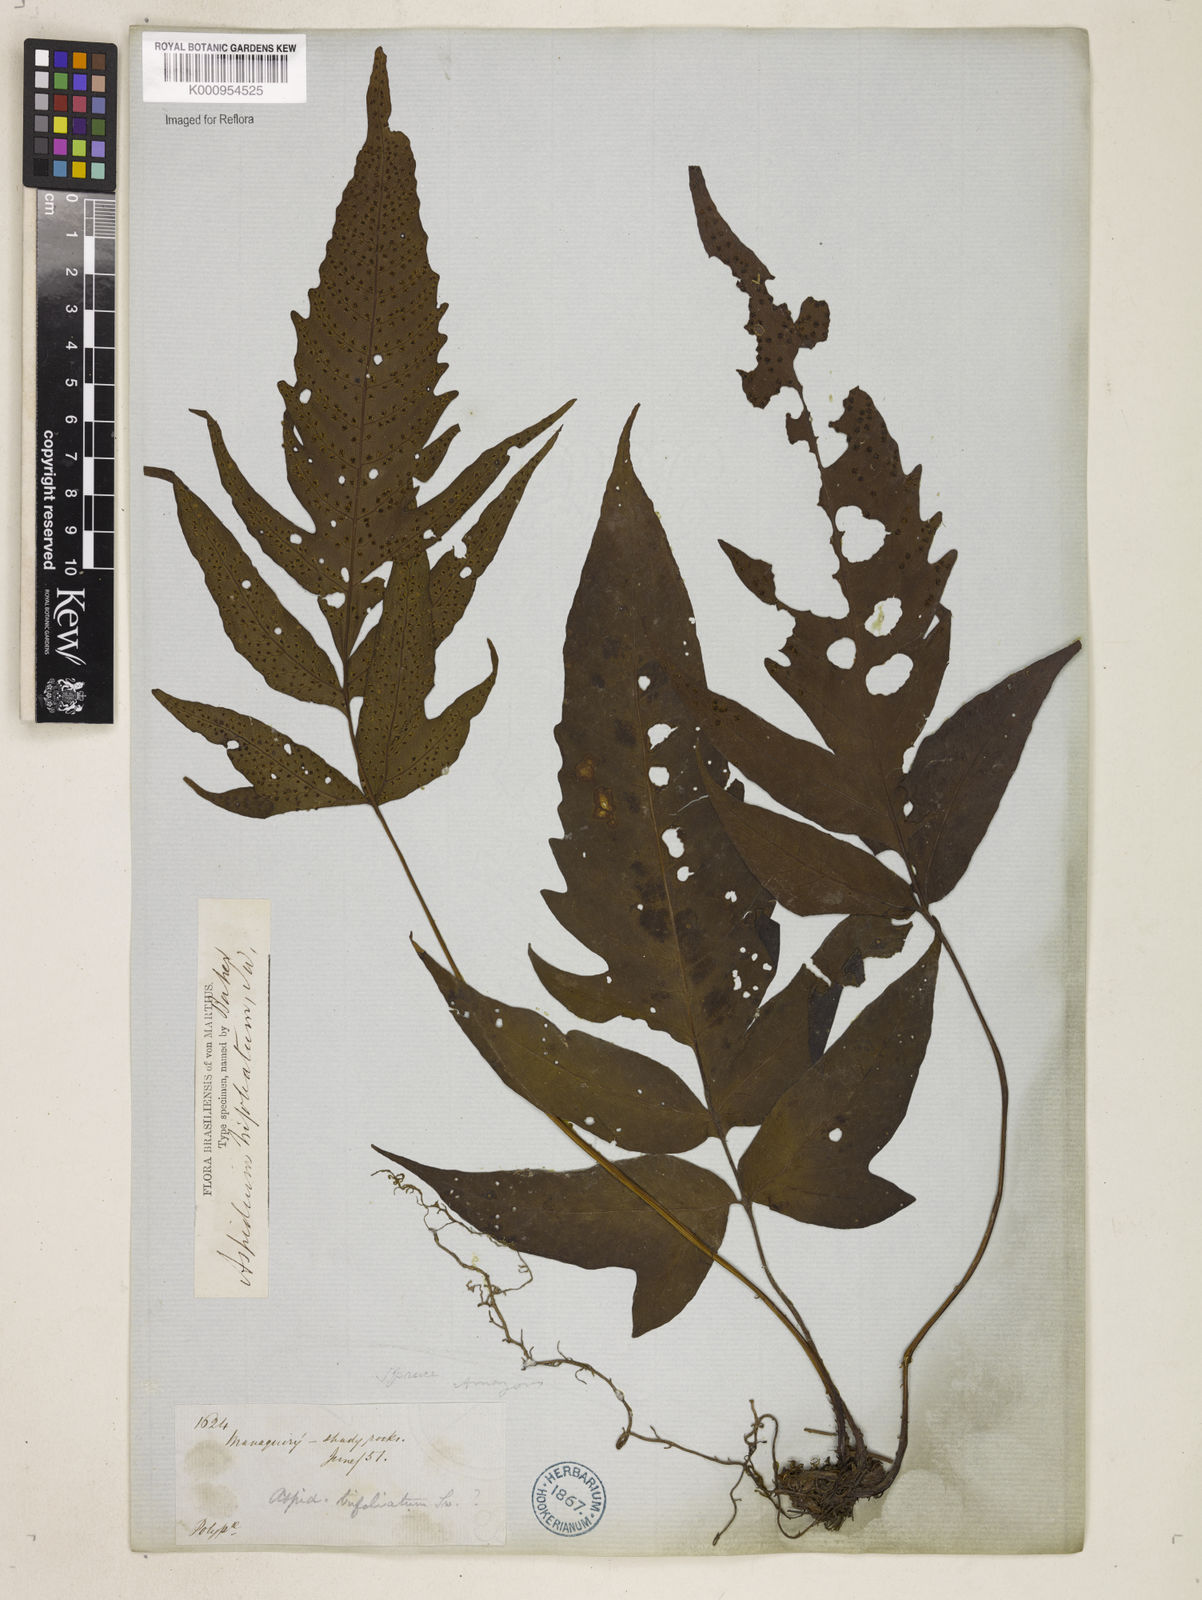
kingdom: Plantae
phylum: Tracheophyta
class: Polypodiopsida
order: Polypodiales
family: Tectariaceae
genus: Tectaria
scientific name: Tectaria incisa
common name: Incised halberd fern
